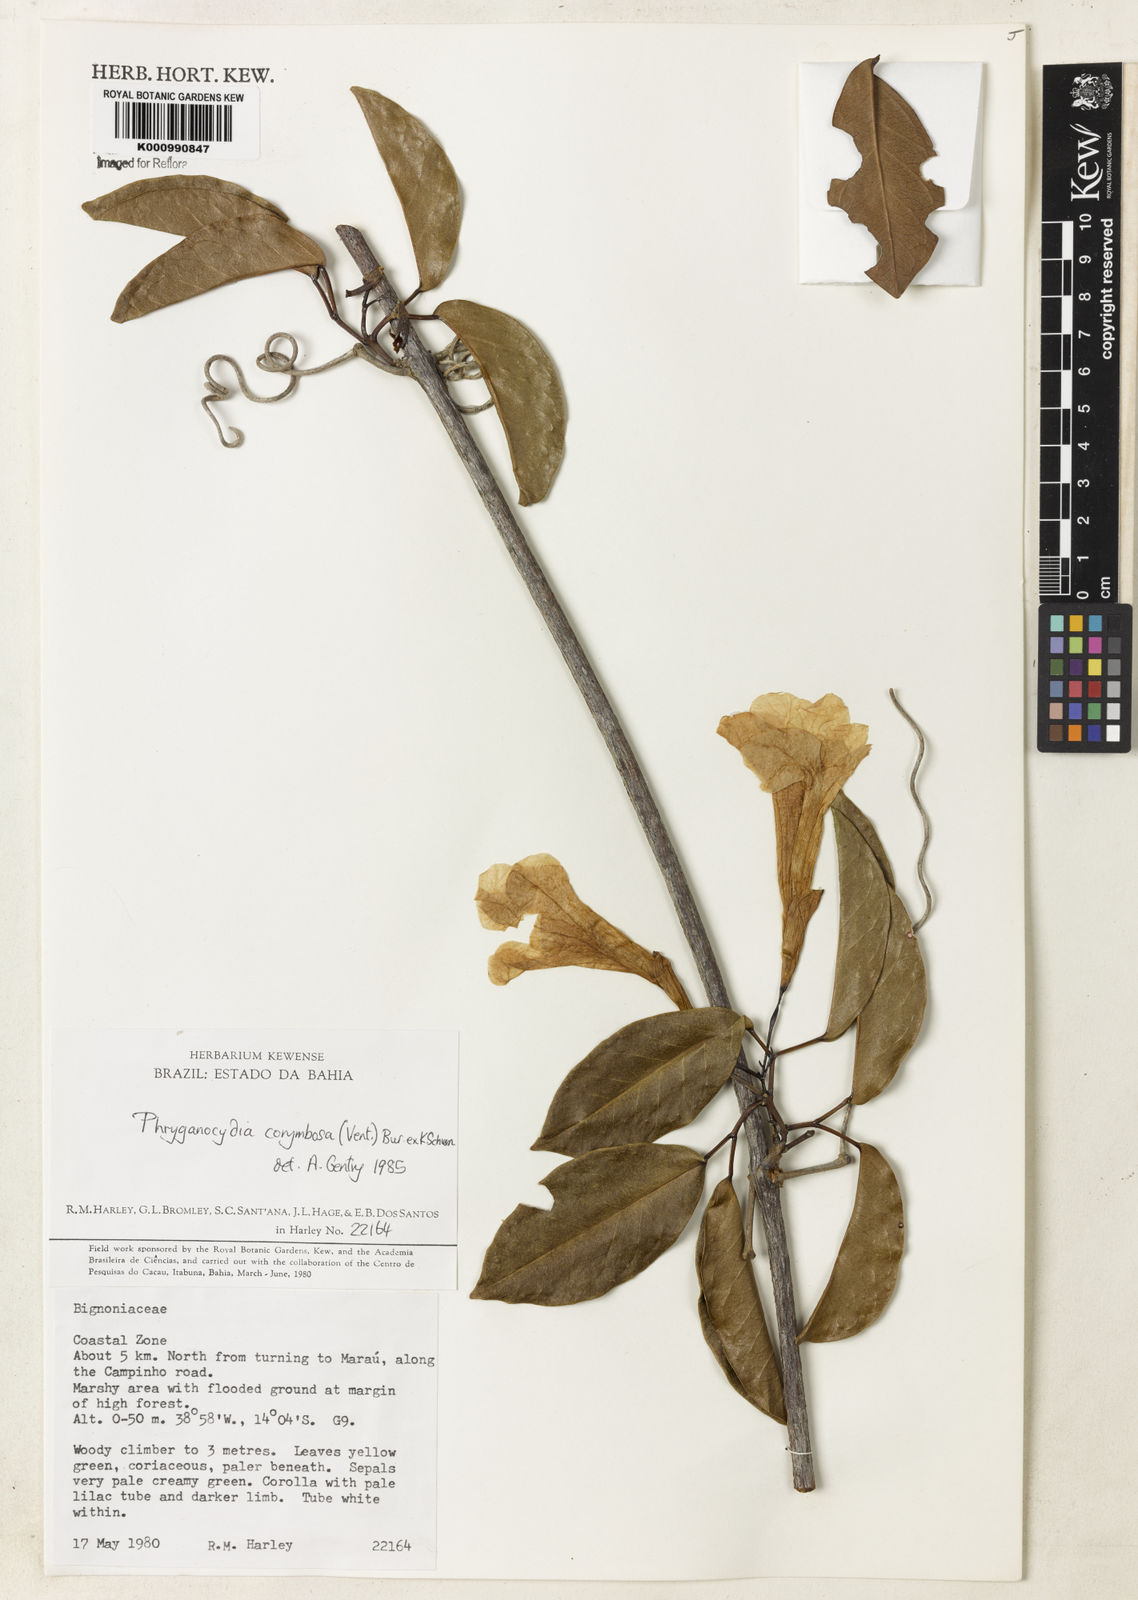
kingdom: Plantae
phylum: Tracheophyta
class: Magnoliopsida
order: Lamiales
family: Bignoniaceae
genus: Bignonia
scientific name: Bignonia corymbosa
